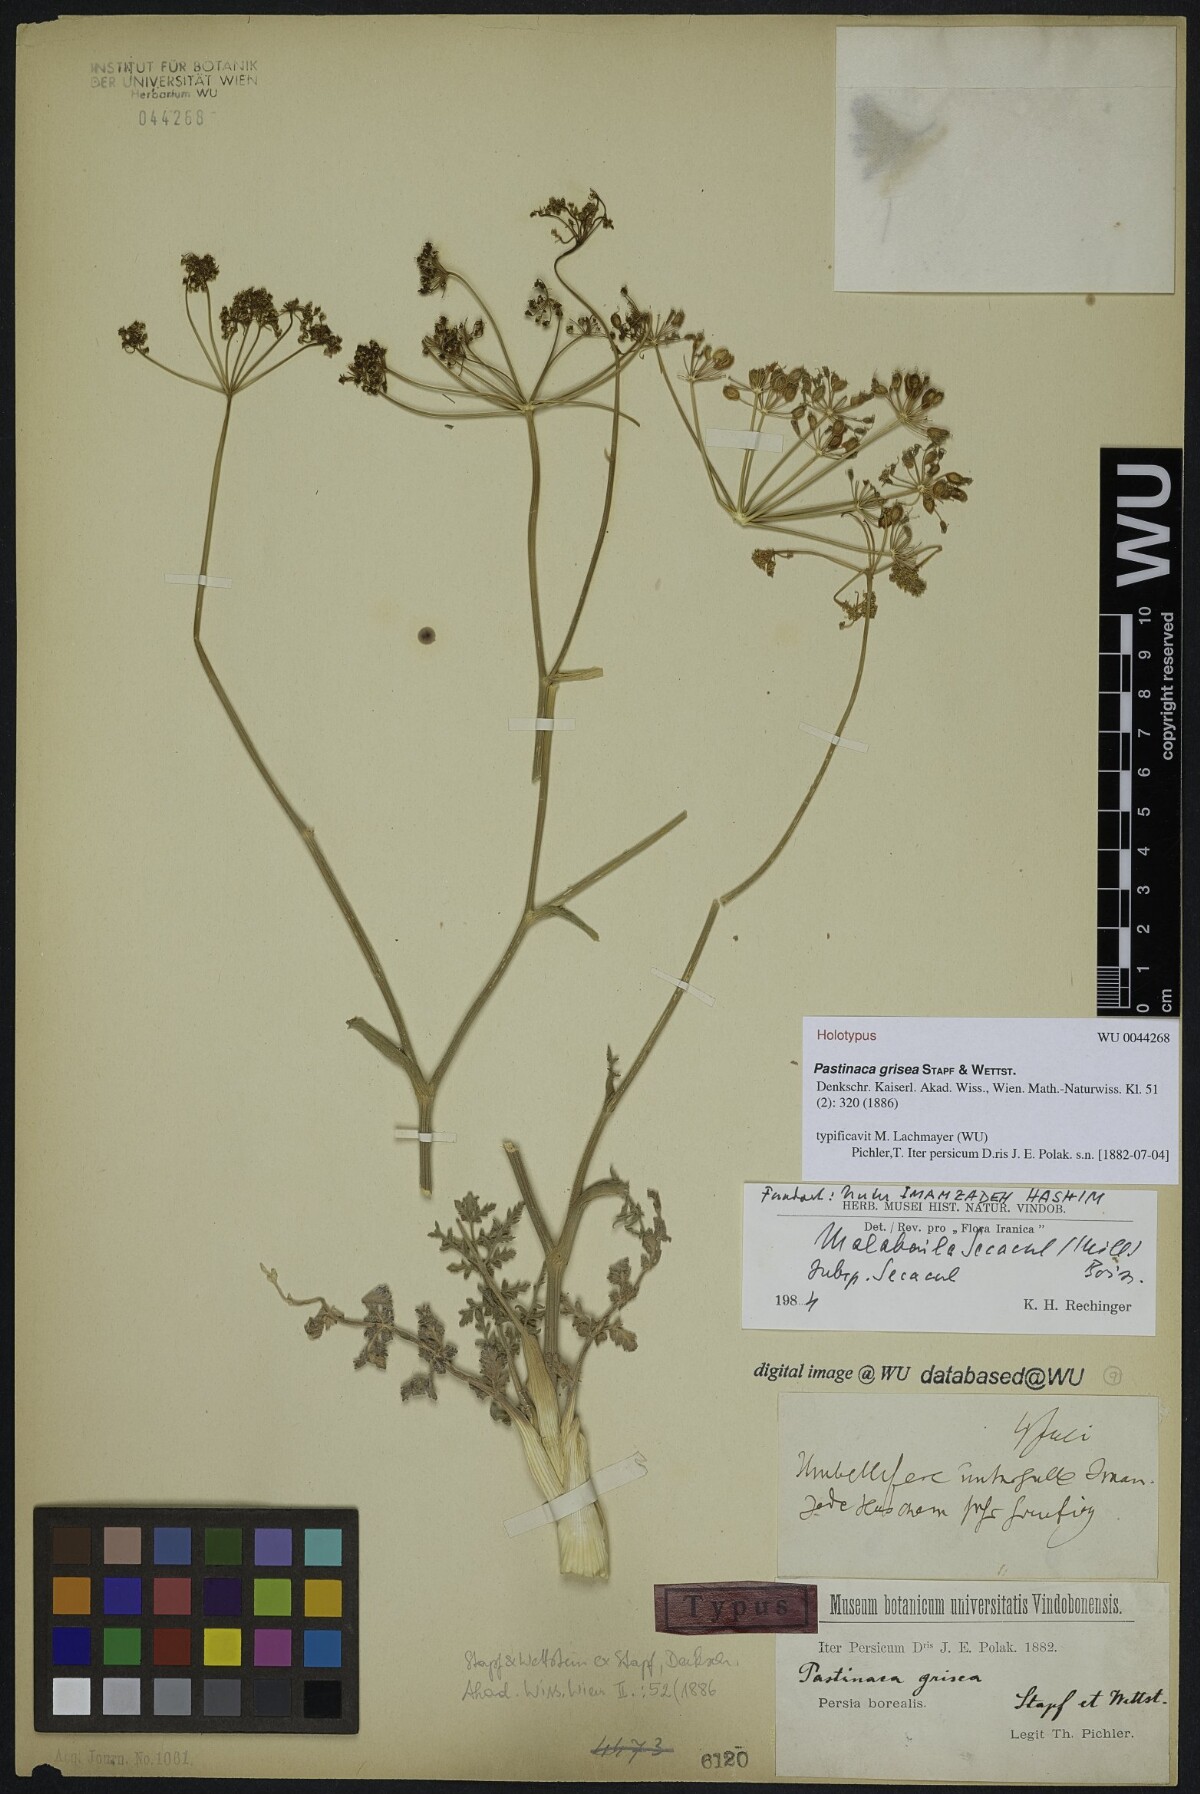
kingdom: Plantae
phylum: Tracheophyta
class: Magnoliopsida
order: Apiales
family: Apiaceae
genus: Leiotulus
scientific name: Leiotulus secacul
